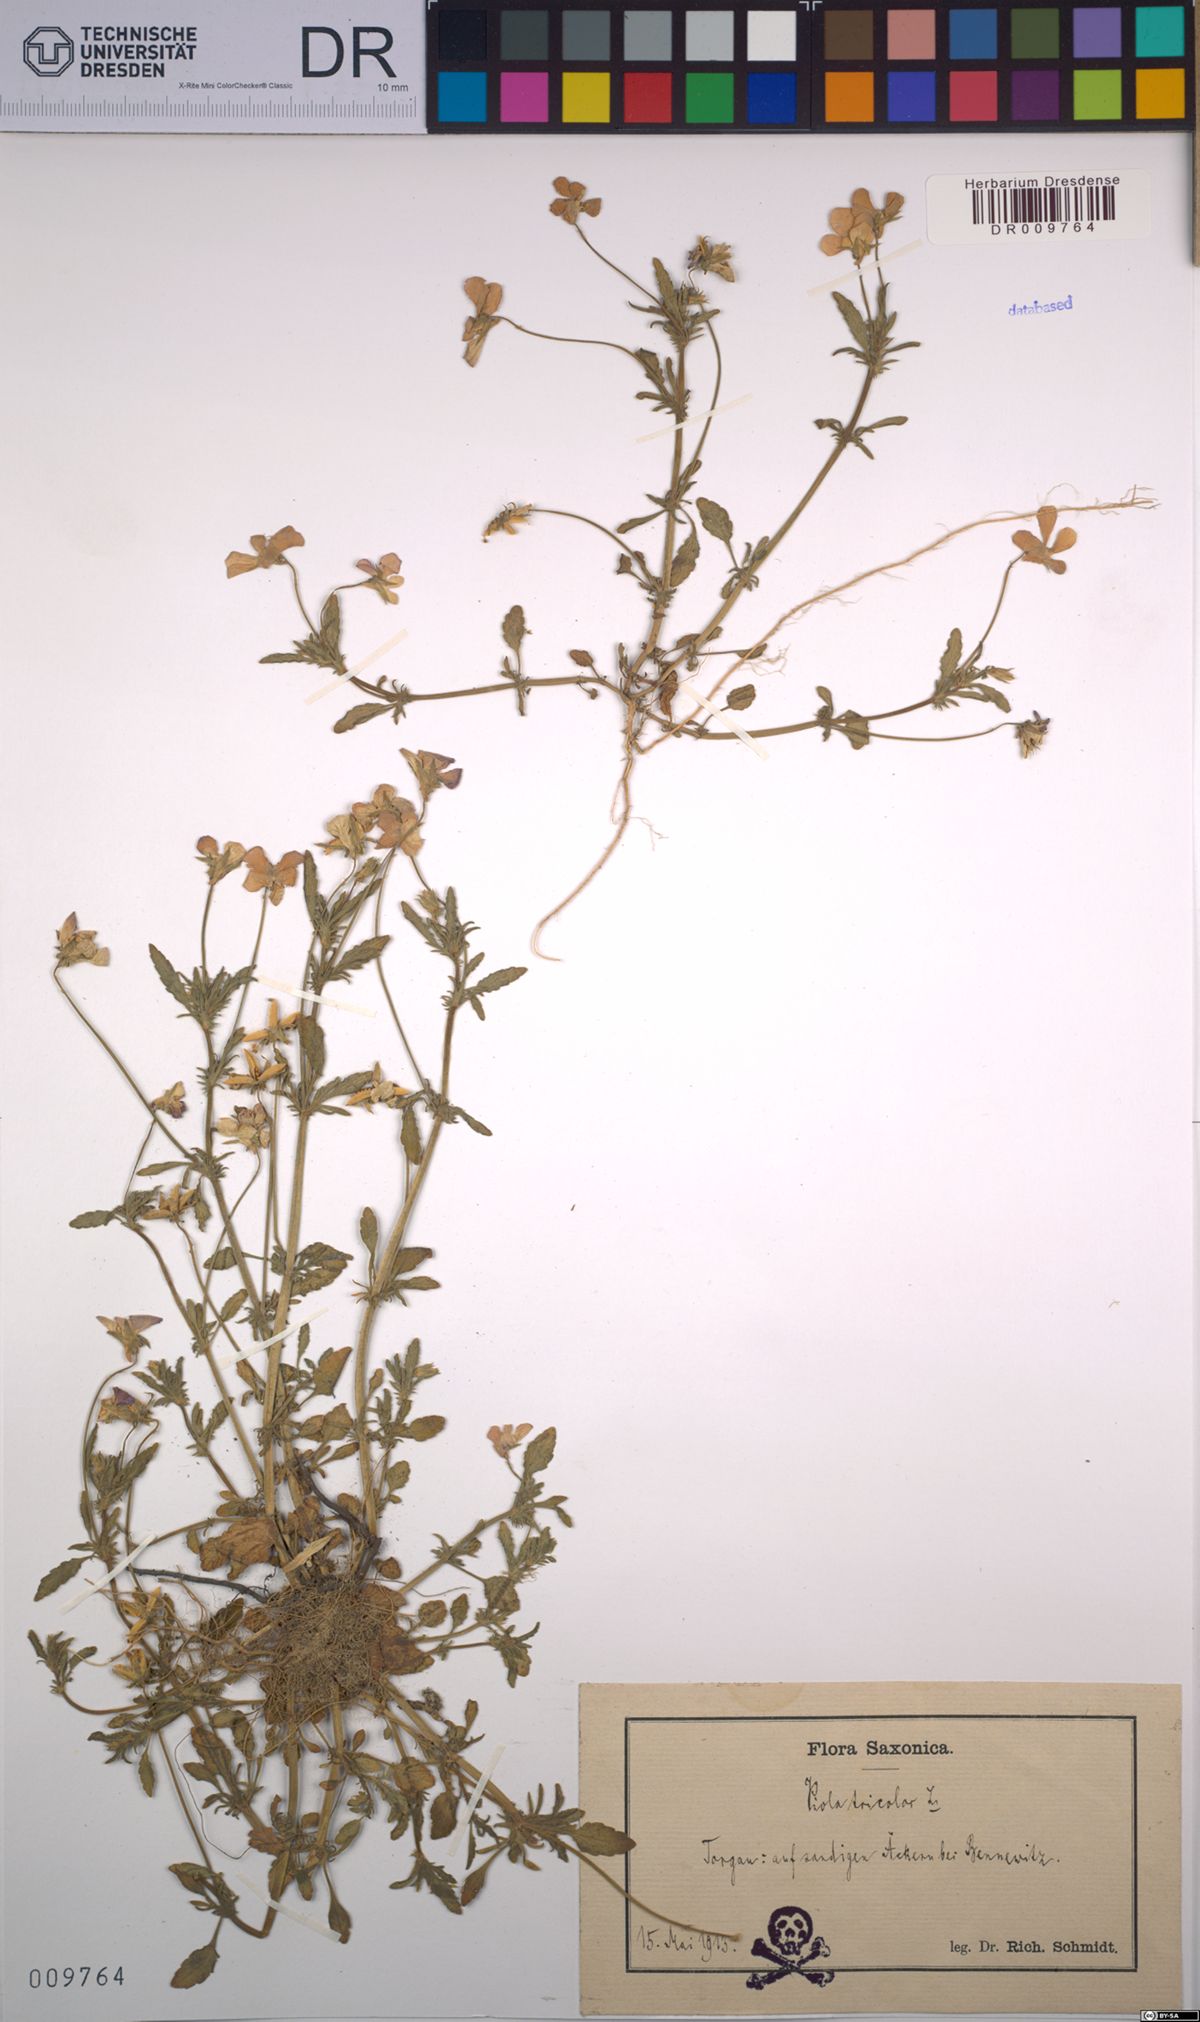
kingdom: Plantae
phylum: Tracheophyta
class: Magnoliopsida
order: Malpighiales
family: Violaceae
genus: Viola
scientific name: Viola tricolor
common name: Pansy
